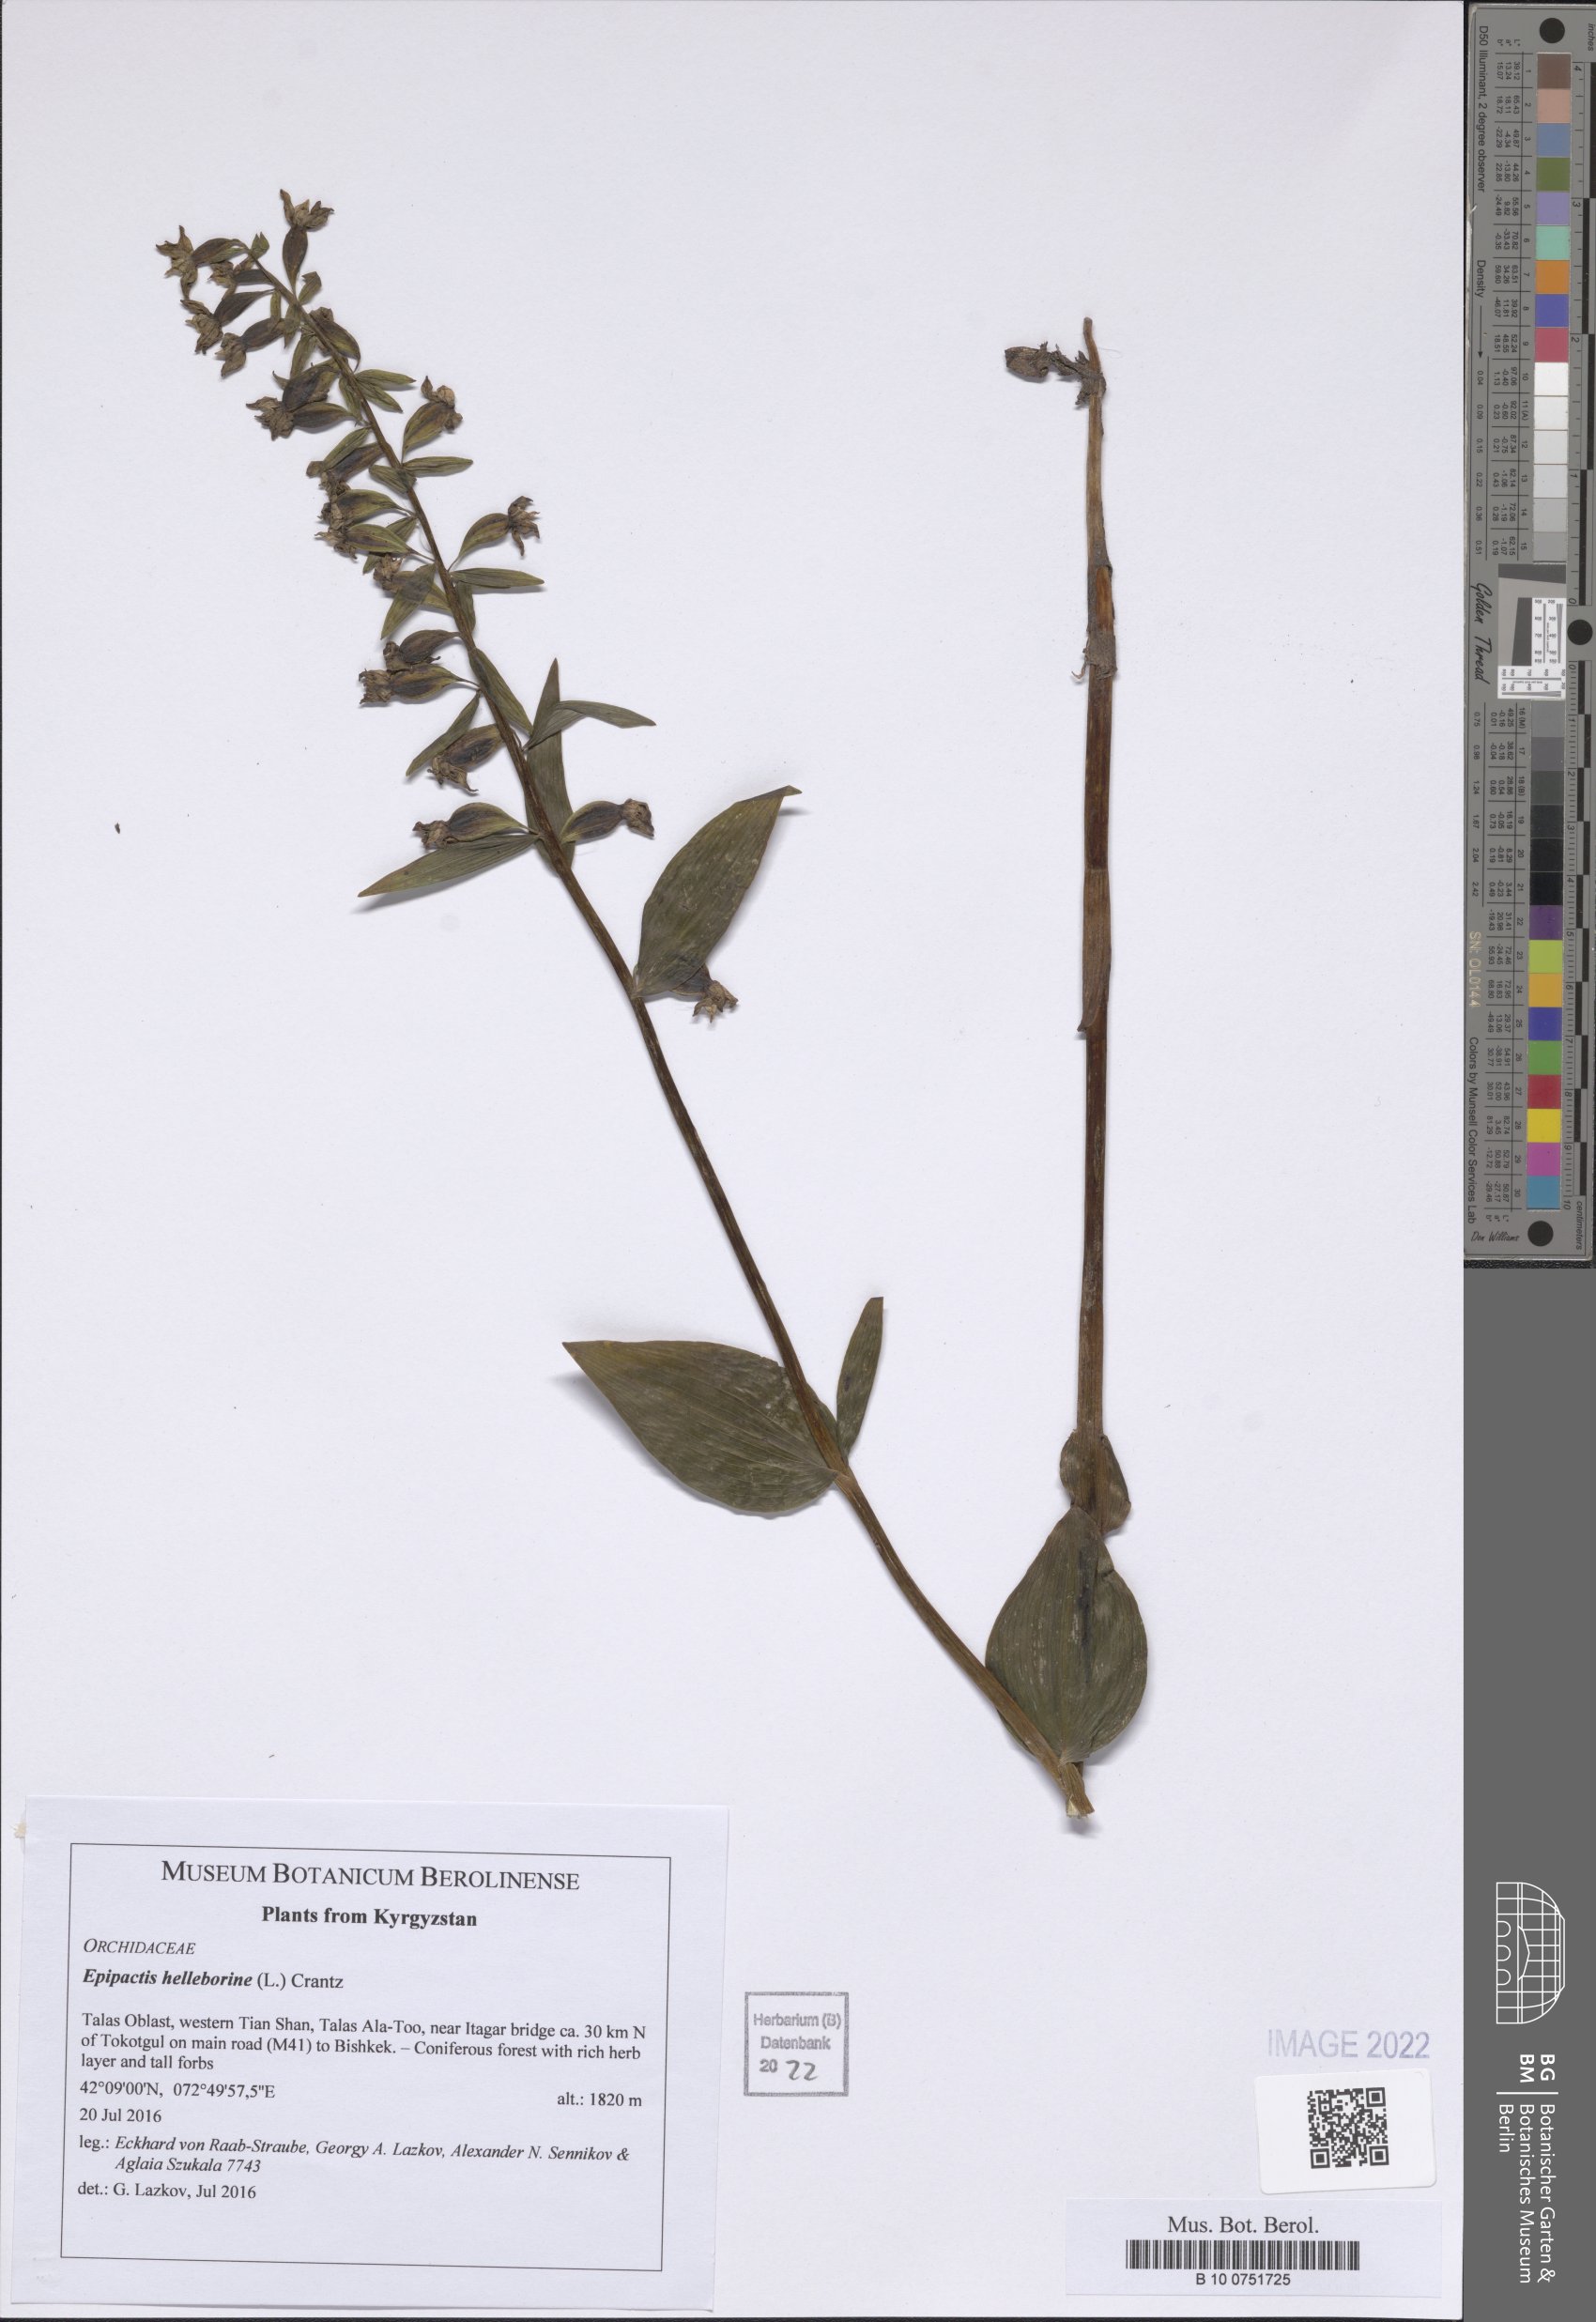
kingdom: Plantae
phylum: Tracheophyta
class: Liliopsida
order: Asparagales
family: Orchidaceae
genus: Epipactis
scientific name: Epipactis helleborine
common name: Broad-leaved helleborine
